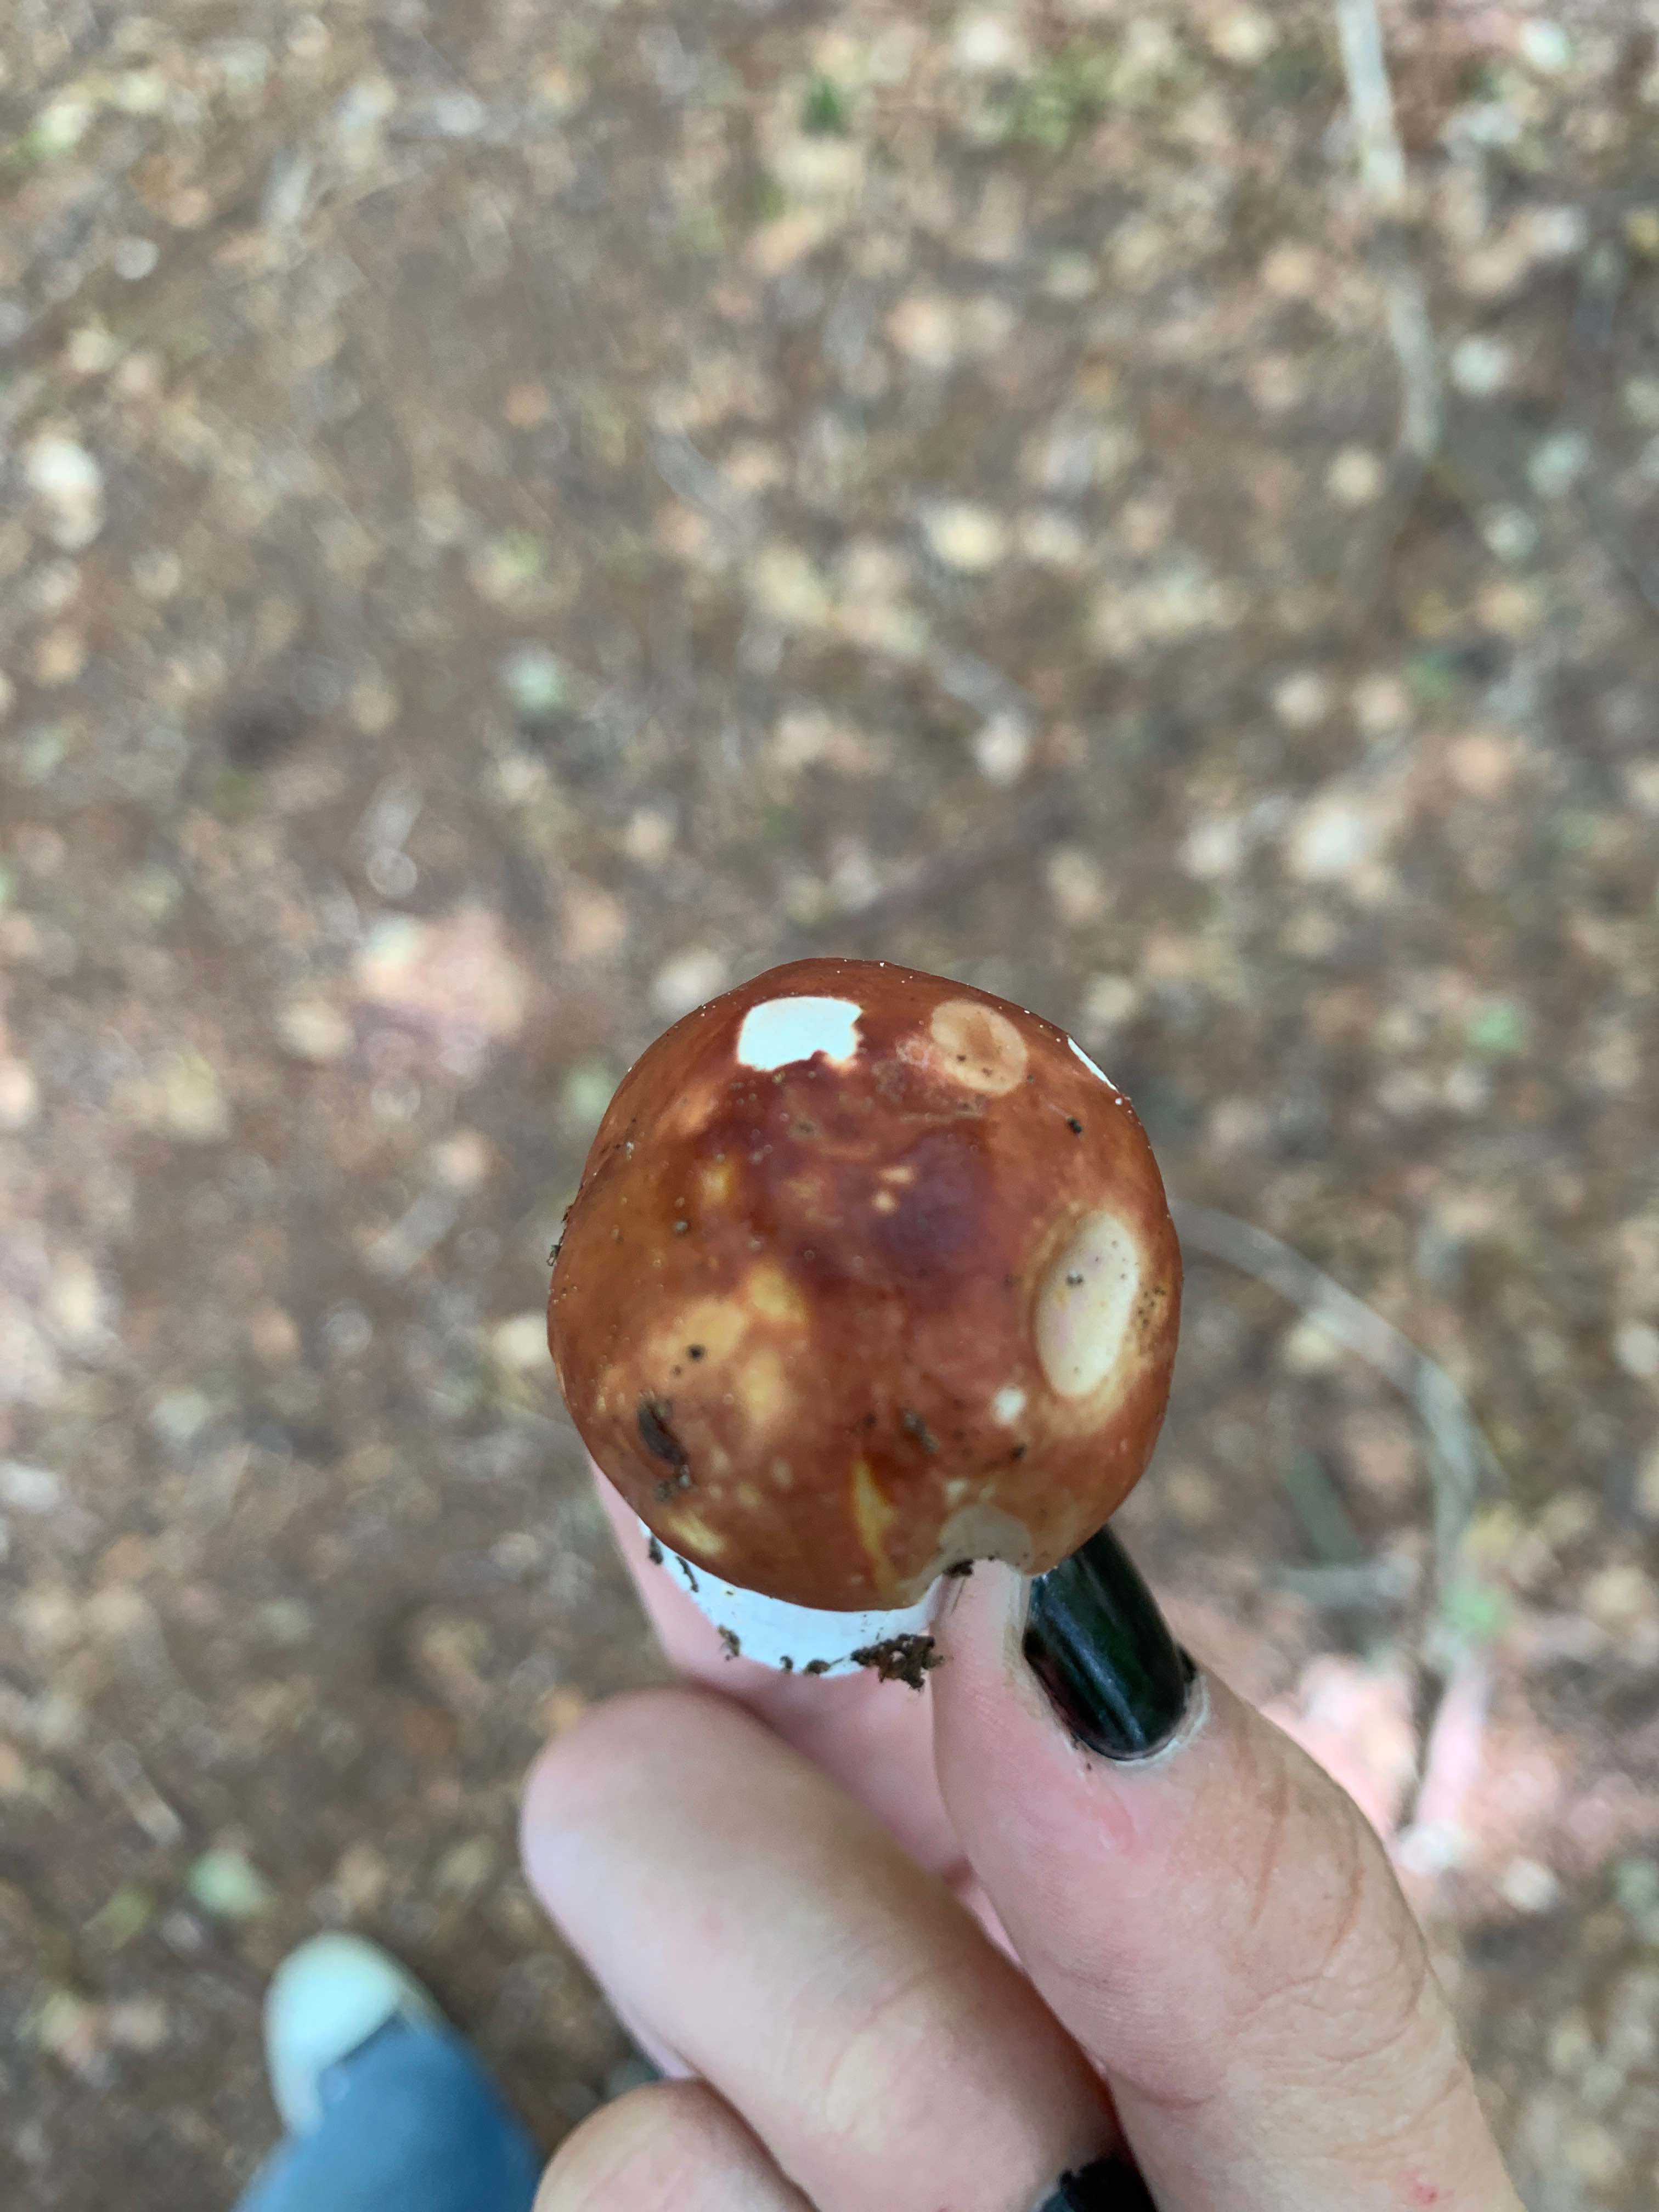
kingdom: Fungi
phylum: Basidiomycota
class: Agaricomycetes
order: Russulales
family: Russulaceae
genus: Russula
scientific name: Russula
